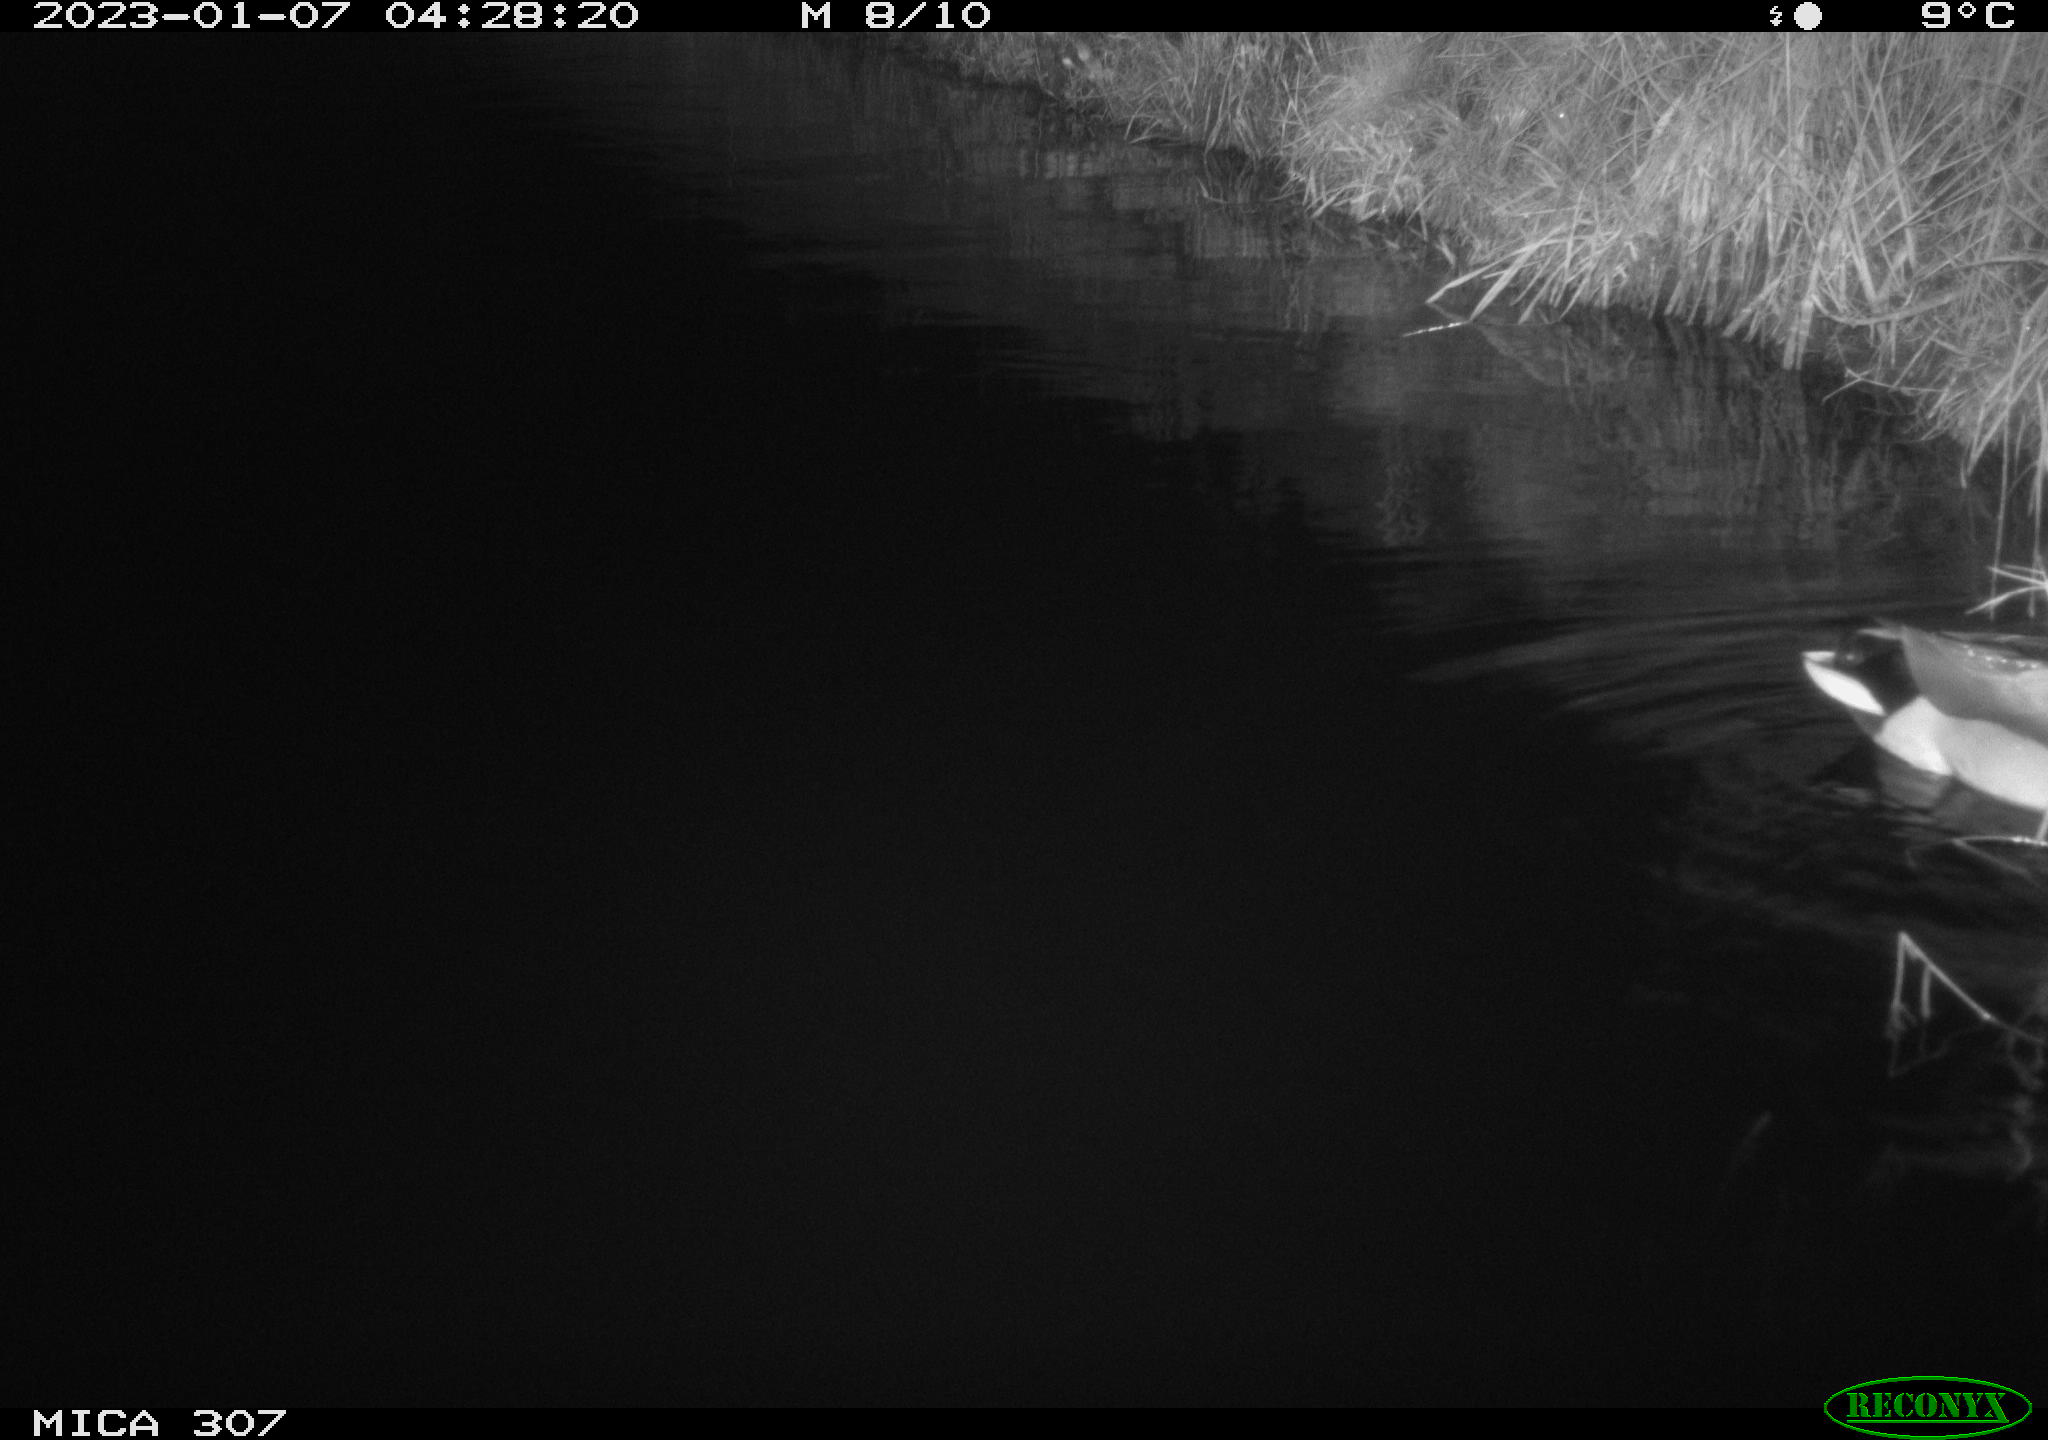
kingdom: Animalia
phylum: Chordata
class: Aves
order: Anseriformes
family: Anatidae
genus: Anas
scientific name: Anas
